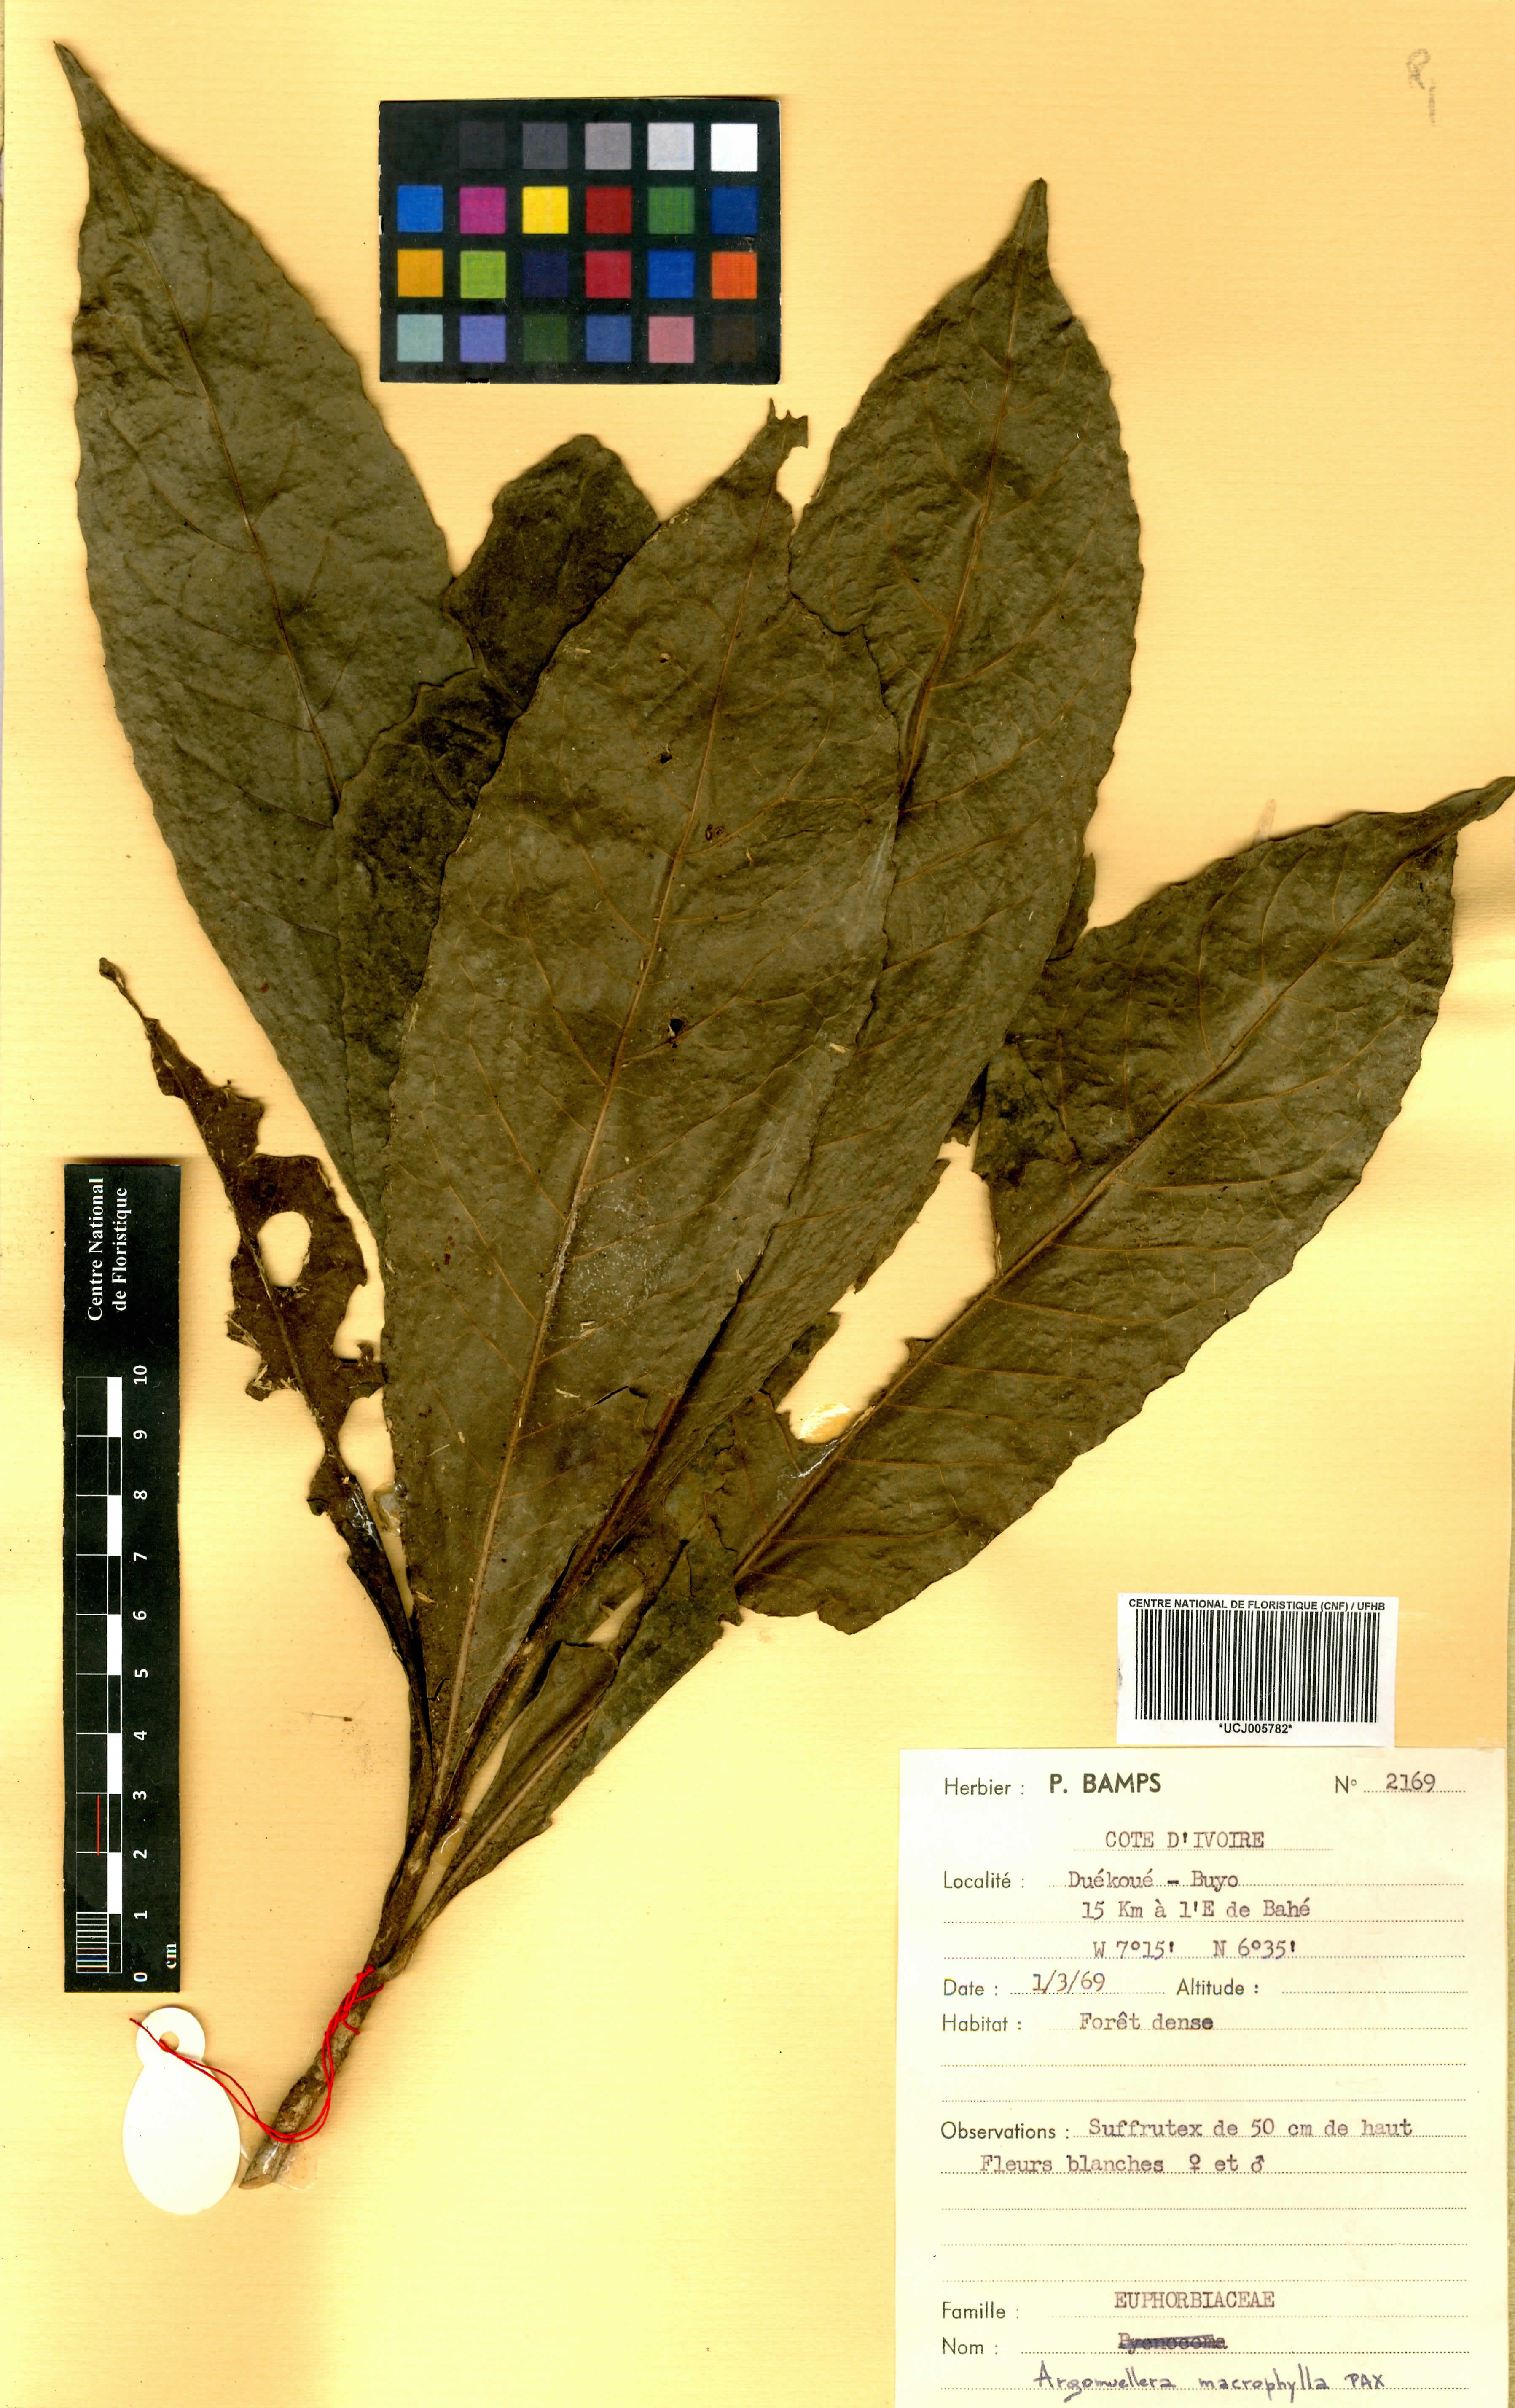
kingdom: Plantae
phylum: Tracheophyta
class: Magnoliopsida
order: Malpighiales
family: Euphorbiaceae
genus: Argomuellera
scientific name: Argomuellera macrophylla
